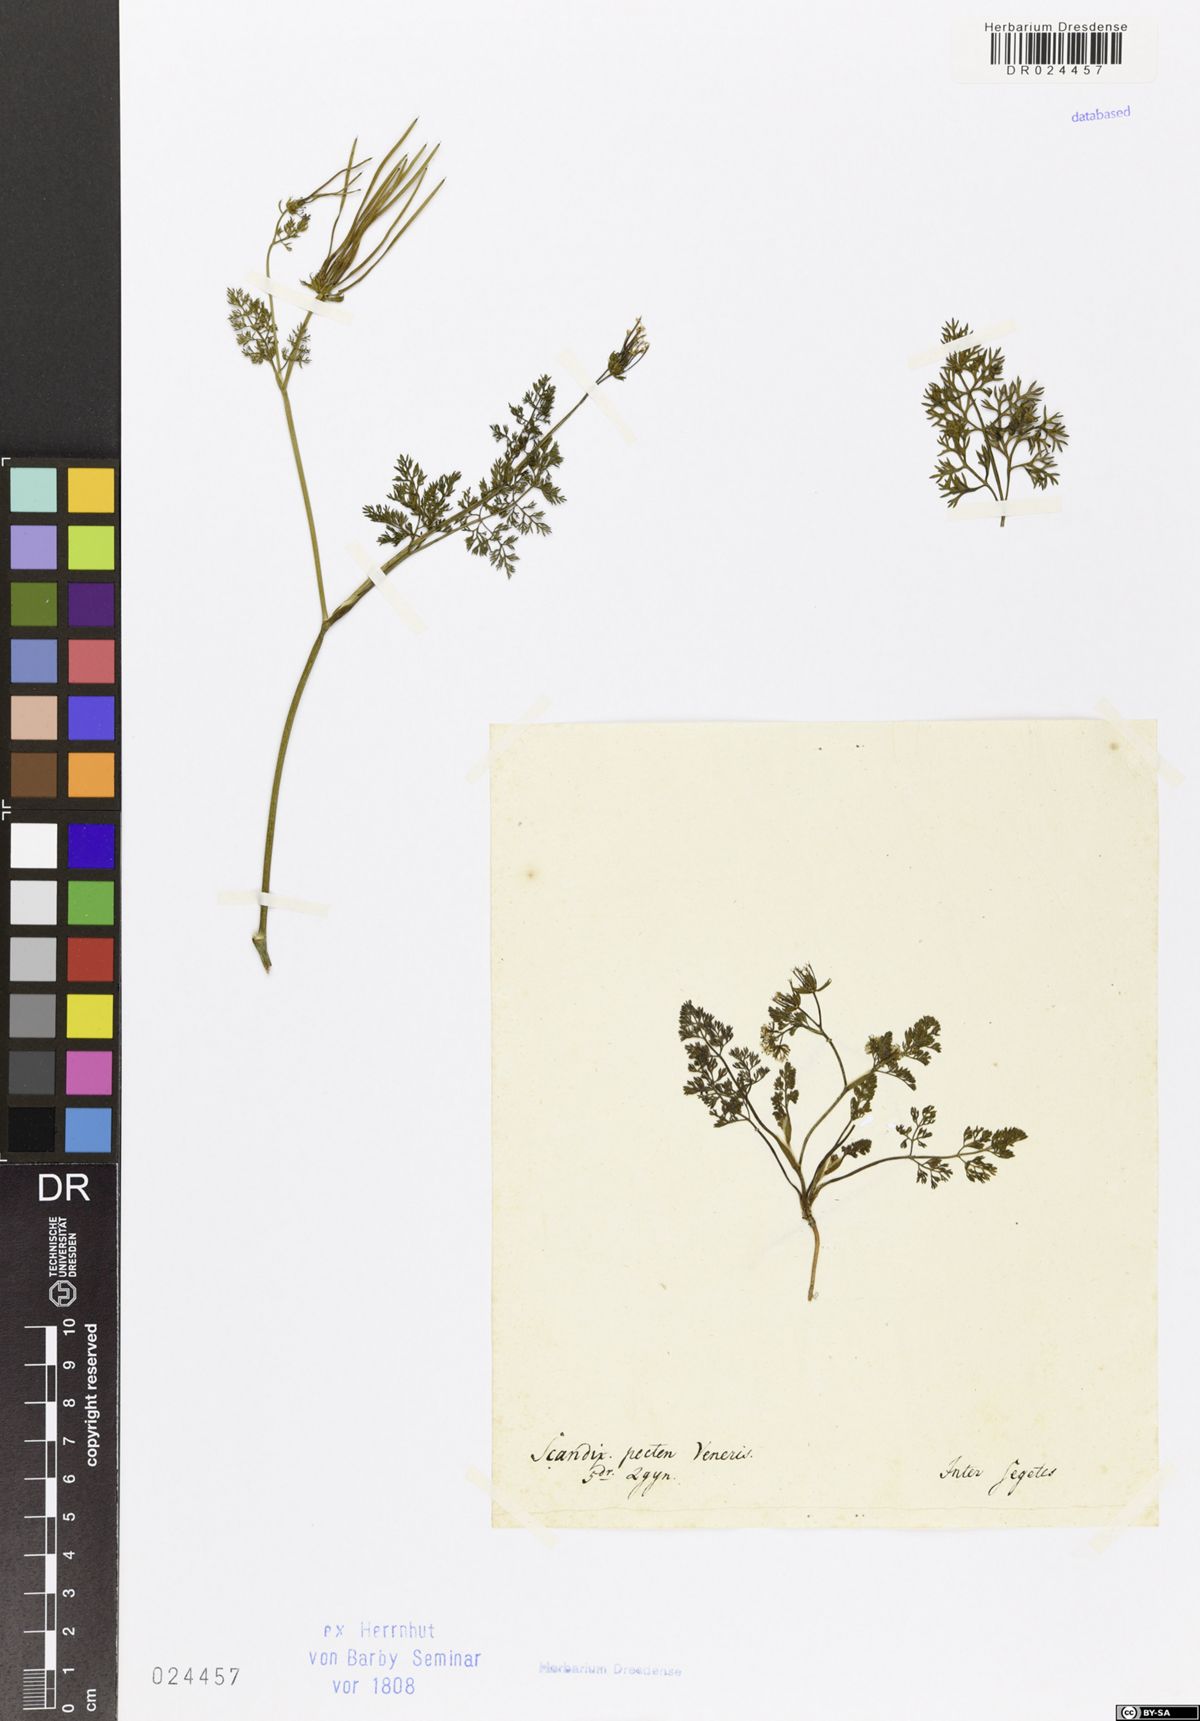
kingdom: Plantae
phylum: Tracheophyta
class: Magnoliopsida
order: Apiales
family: Apiaceae
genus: Scandix
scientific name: Scandix pecten-veneris
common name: Shepherd's-needle
